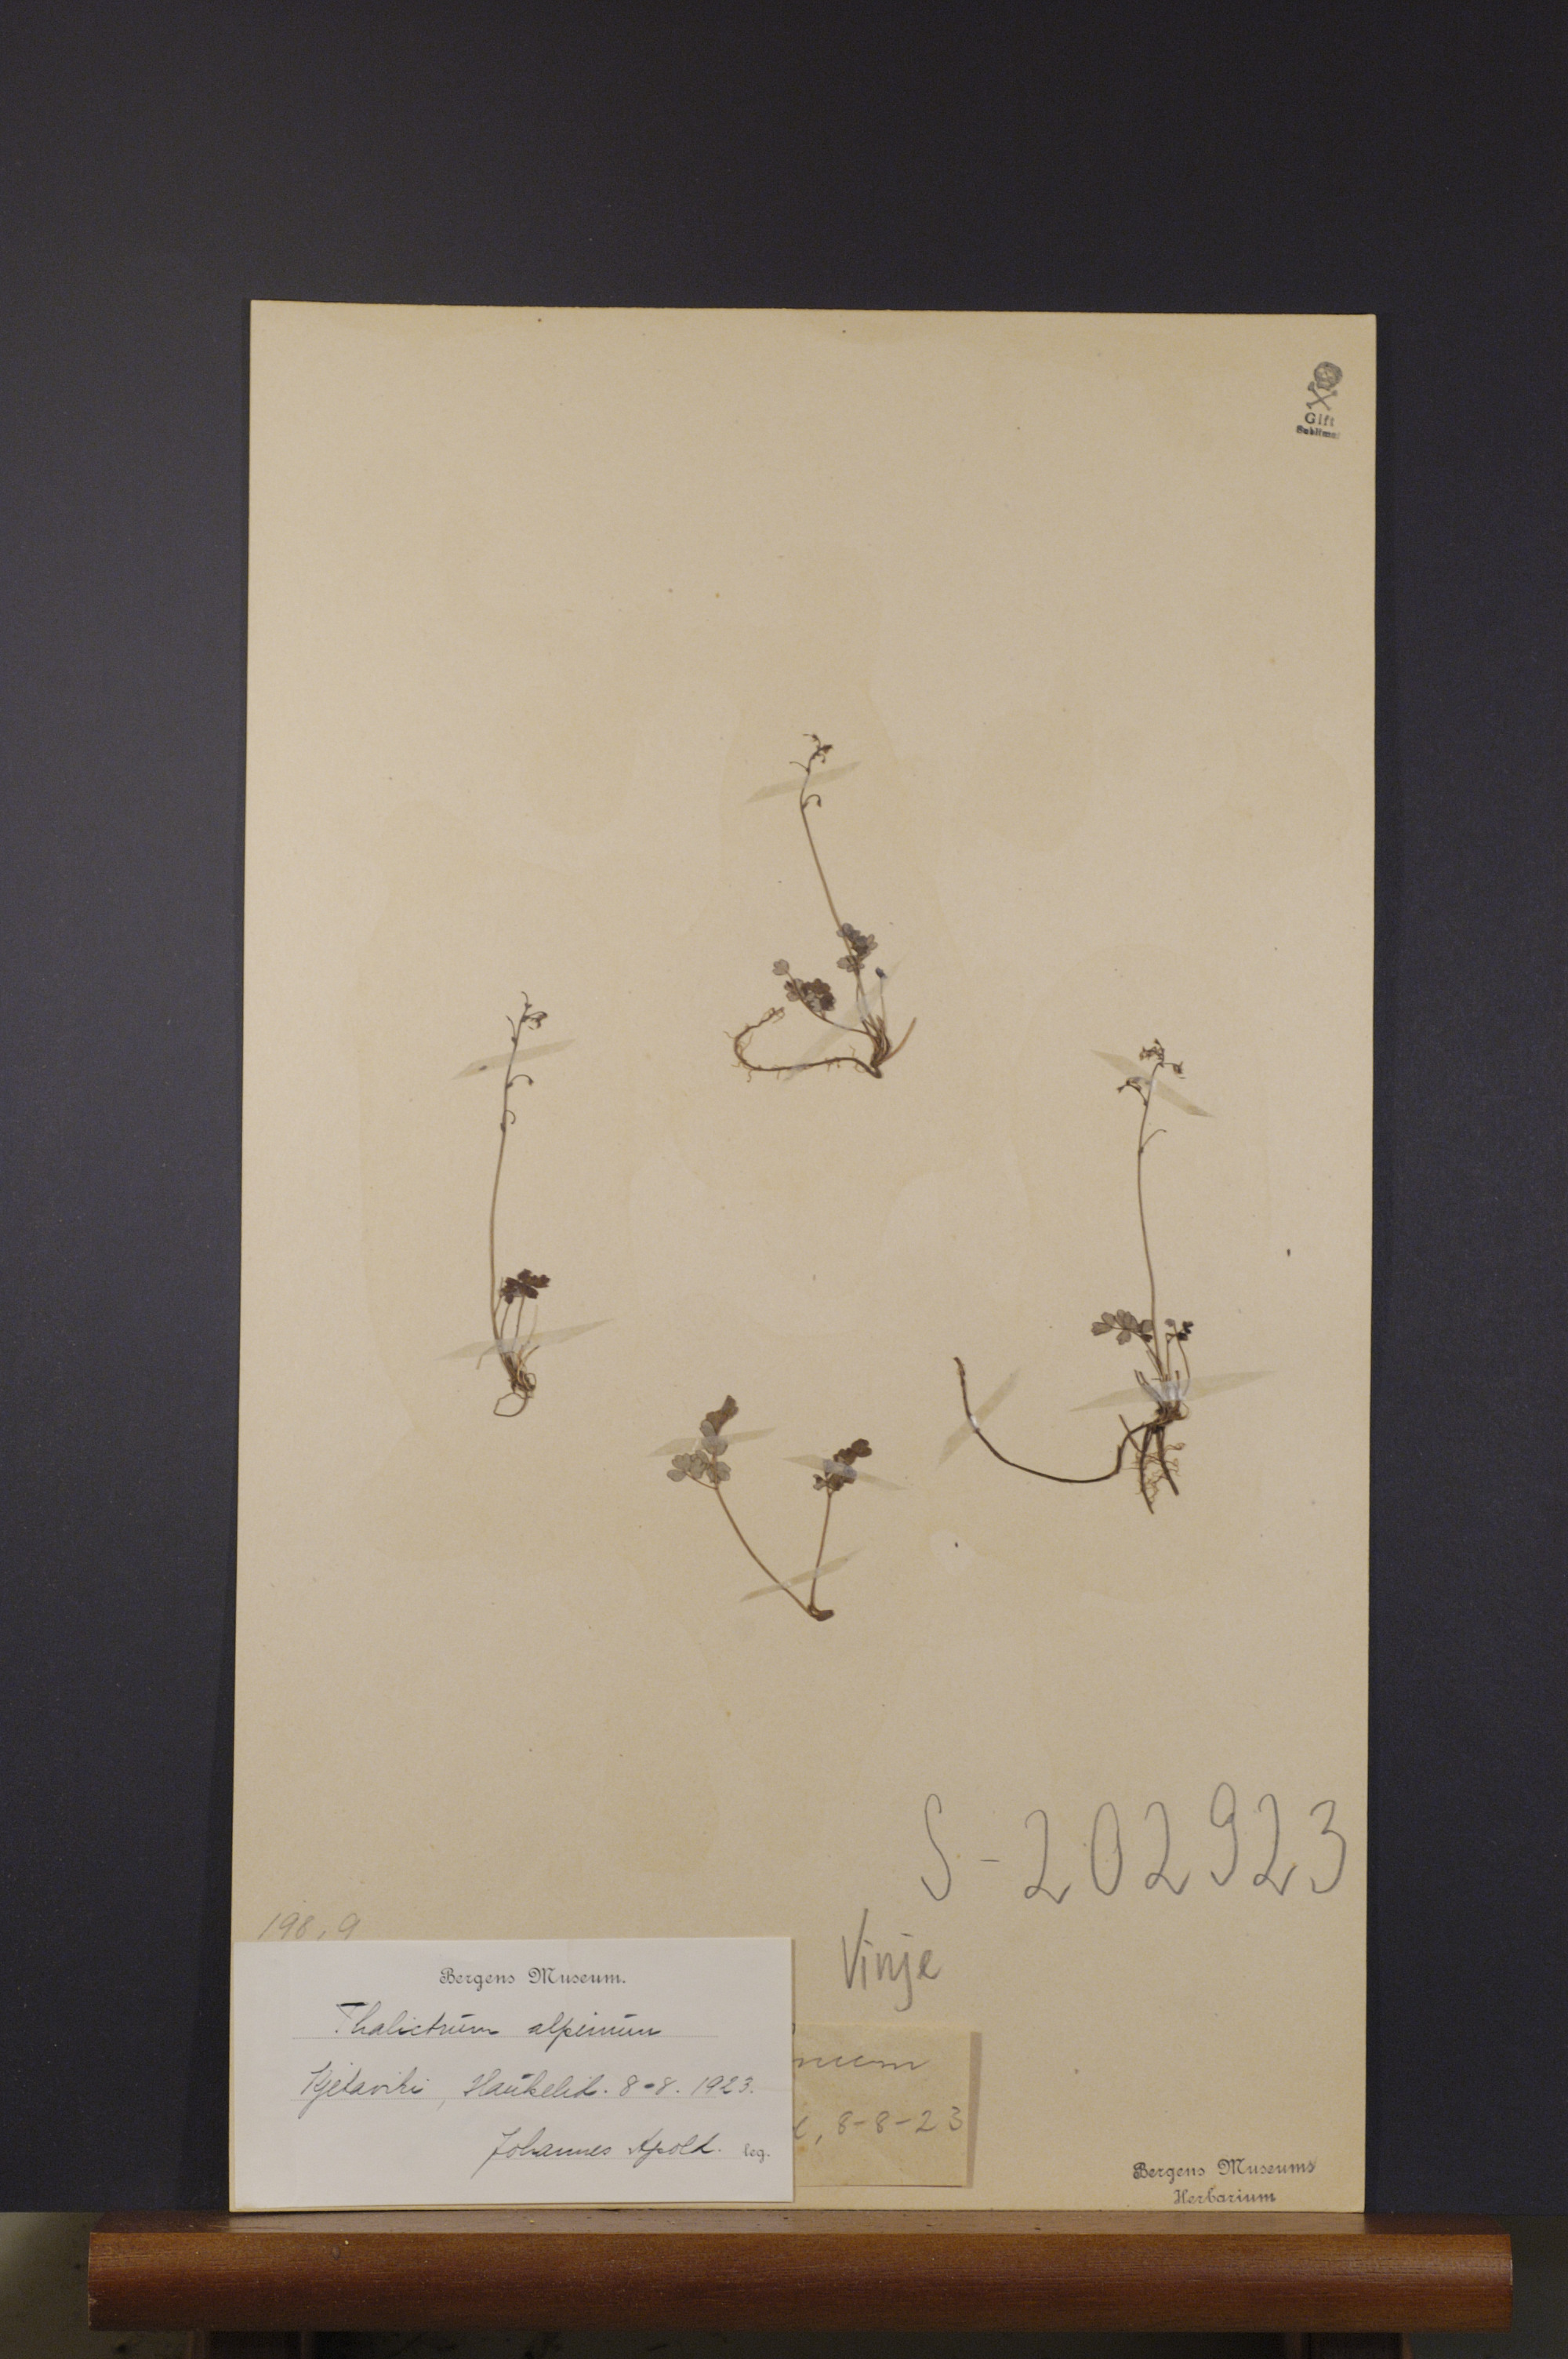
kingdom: Plantae
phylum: Tracheophyta
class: Magnoliopsida
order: Ranunculales
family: Ranunculaceae
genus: Thalictrum
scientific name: Thalictrum alpinum
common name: Alpine meadow-rue
